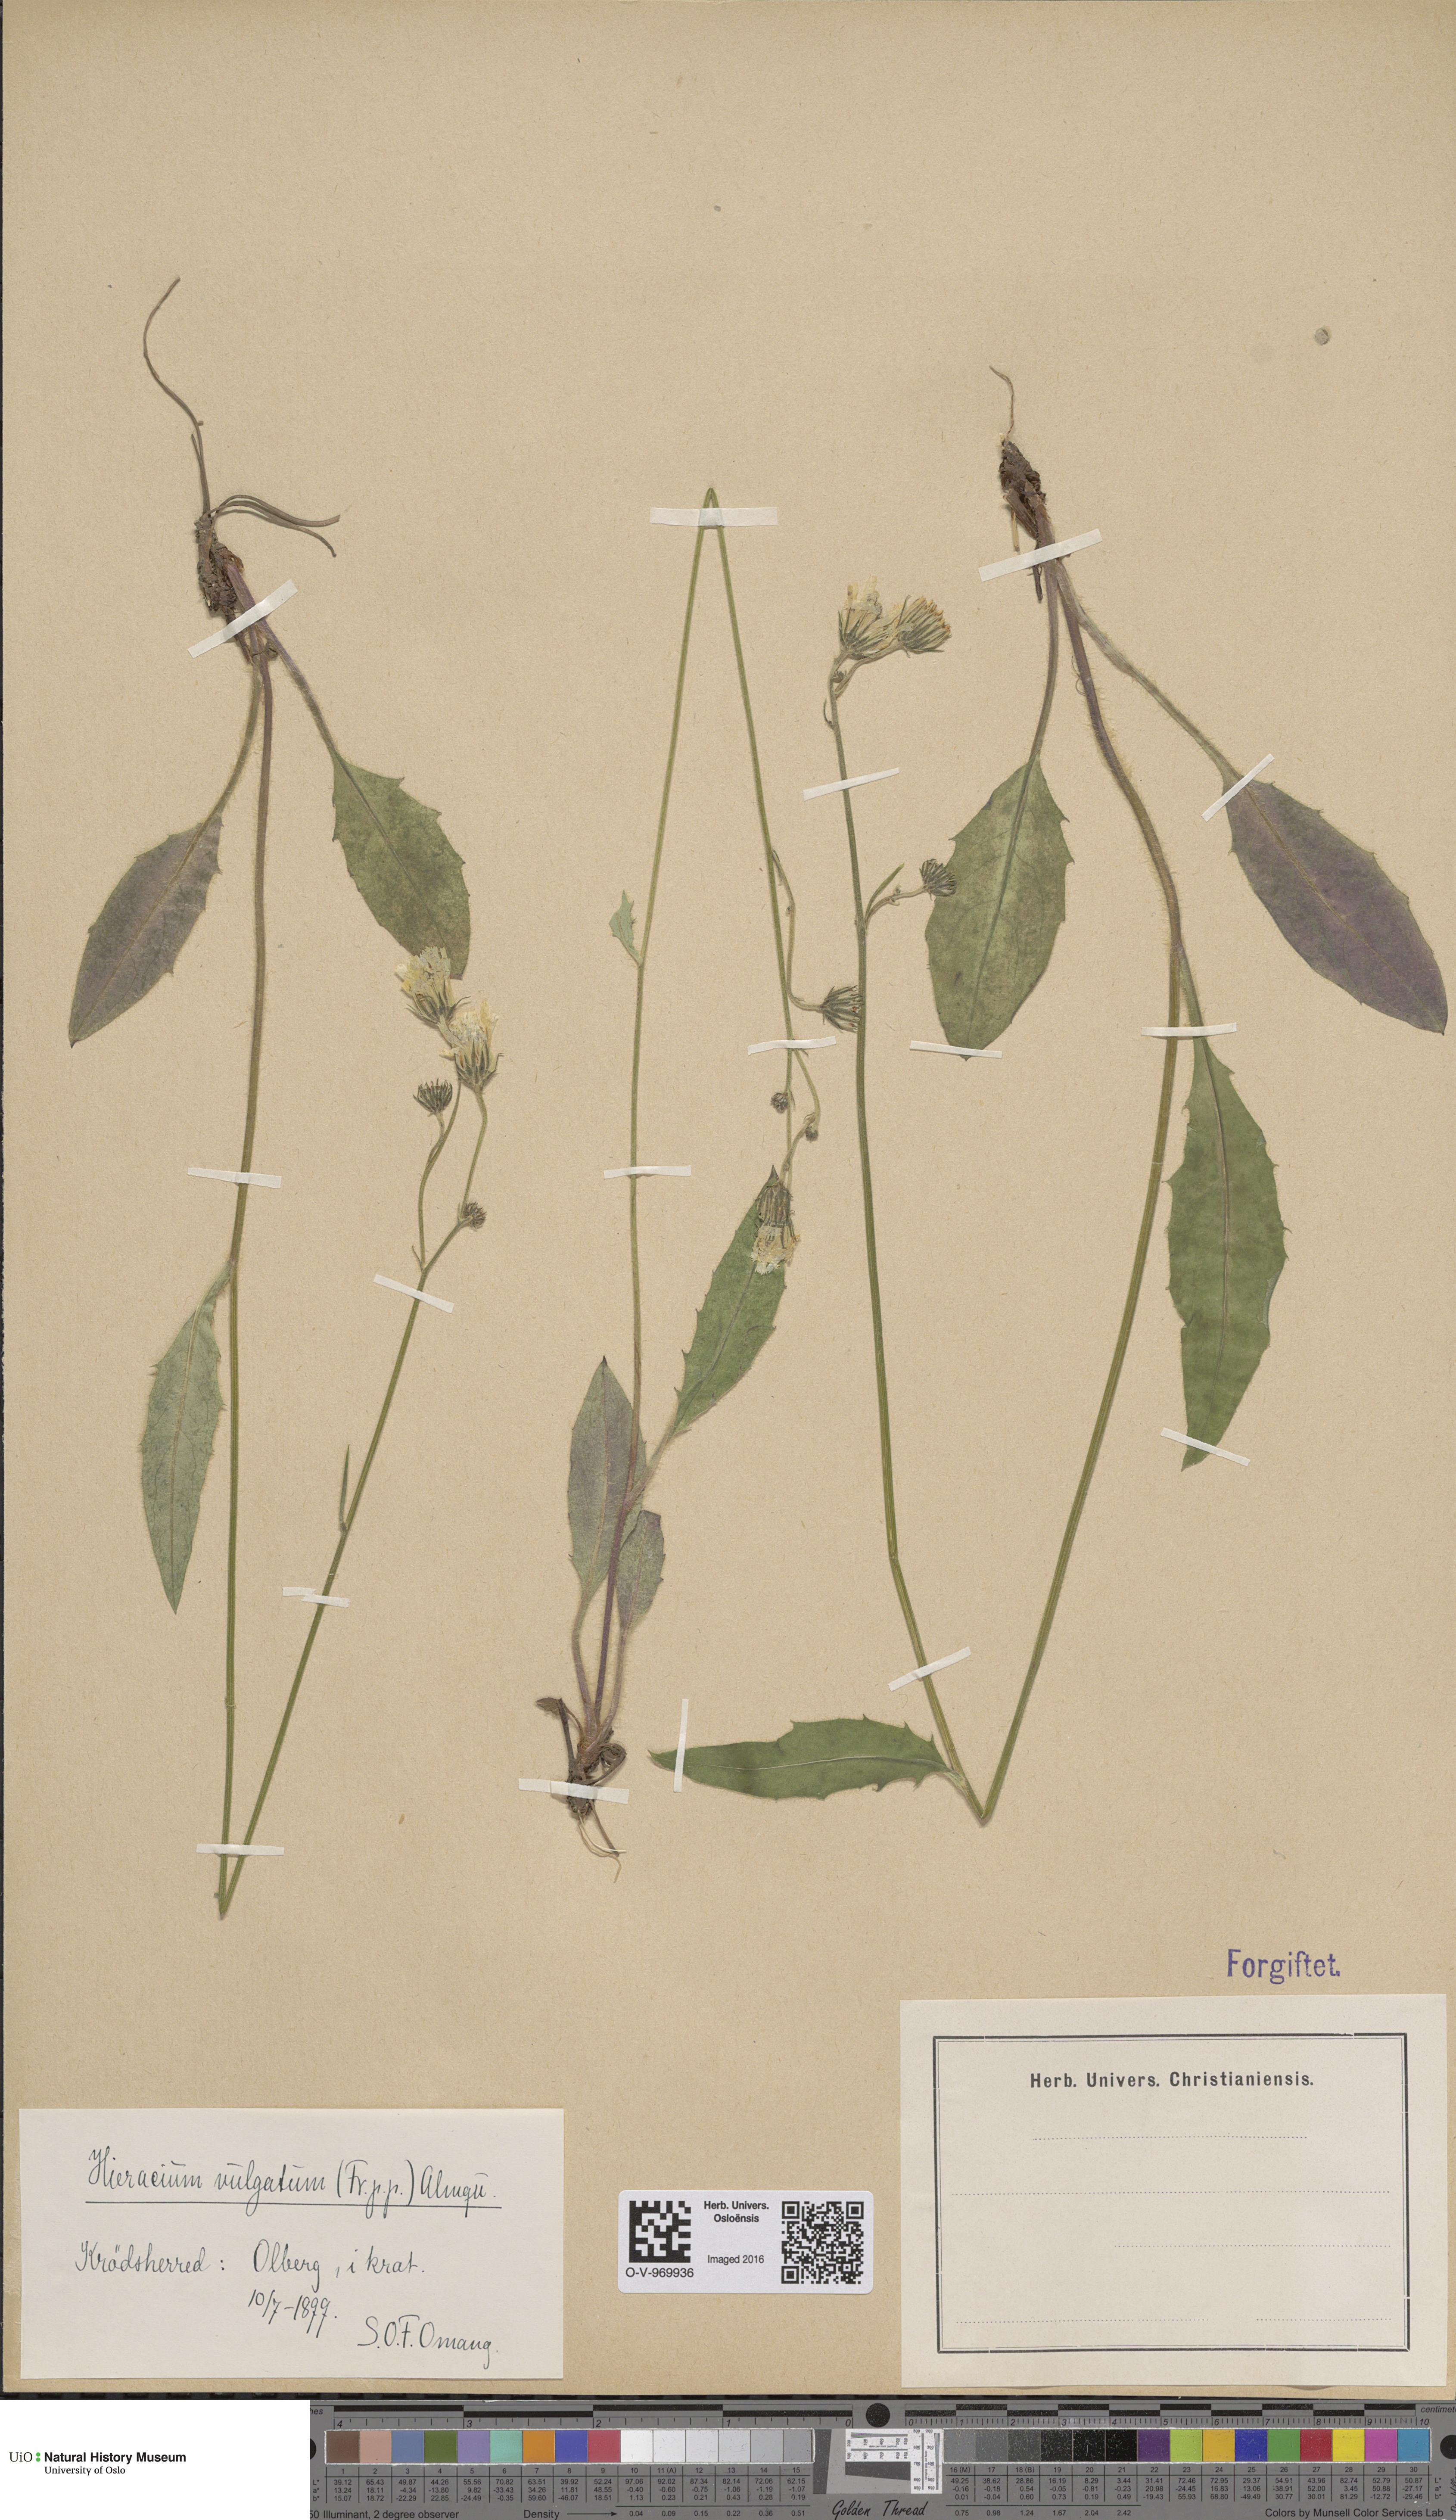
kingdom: Plantae
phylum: Tracheophyta
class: Magnoliopsida
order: Asterales
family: Asteraceae
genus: Hieracium
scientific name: Hieracium vulgatum
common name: Common hawkweed
